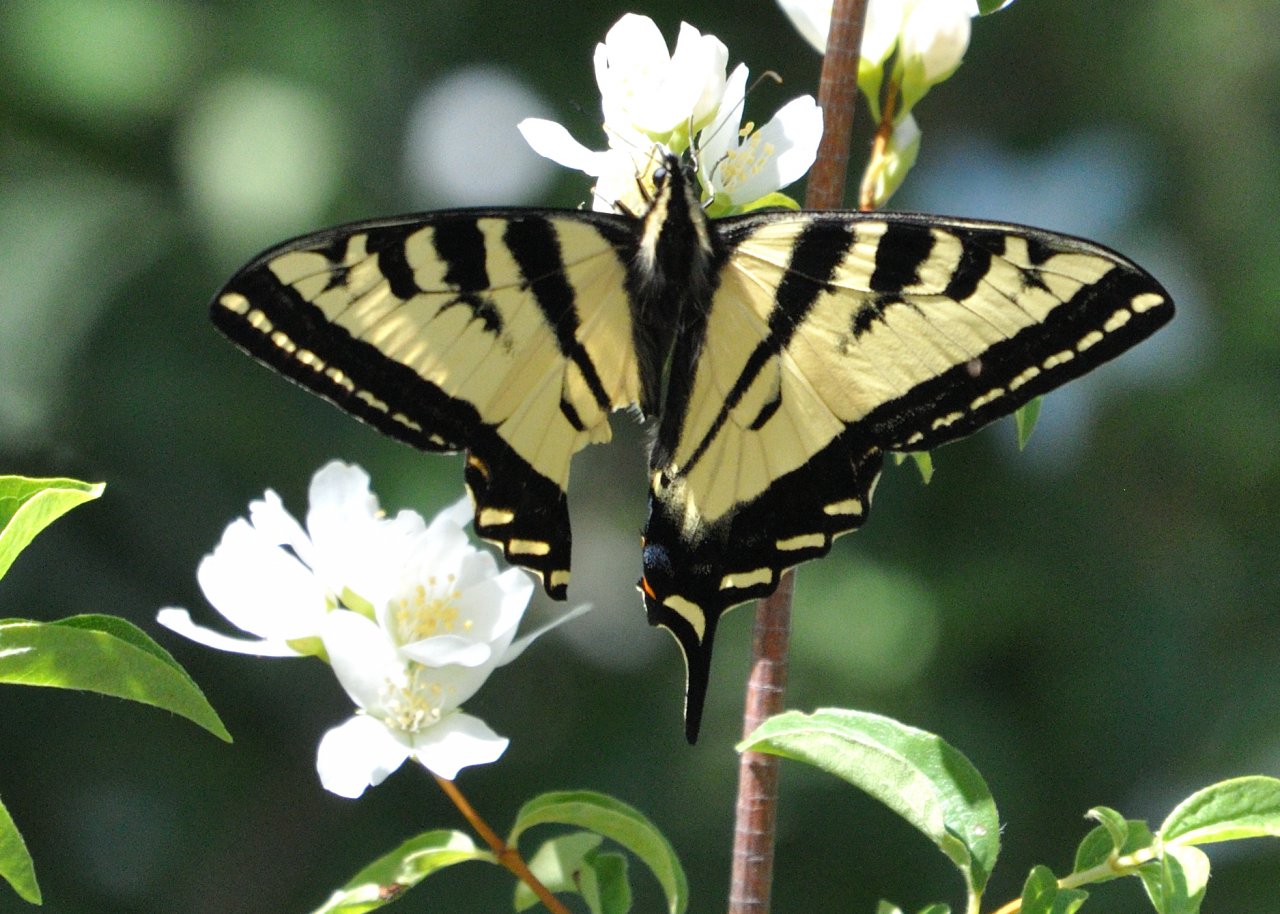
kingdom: Animalia
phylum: Arthropoda
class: Insecta
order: Lepidoptera
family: Papilionidae
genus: Pterourus
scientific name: Pterourus rutulus
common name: Western Tiger Swallowtail
